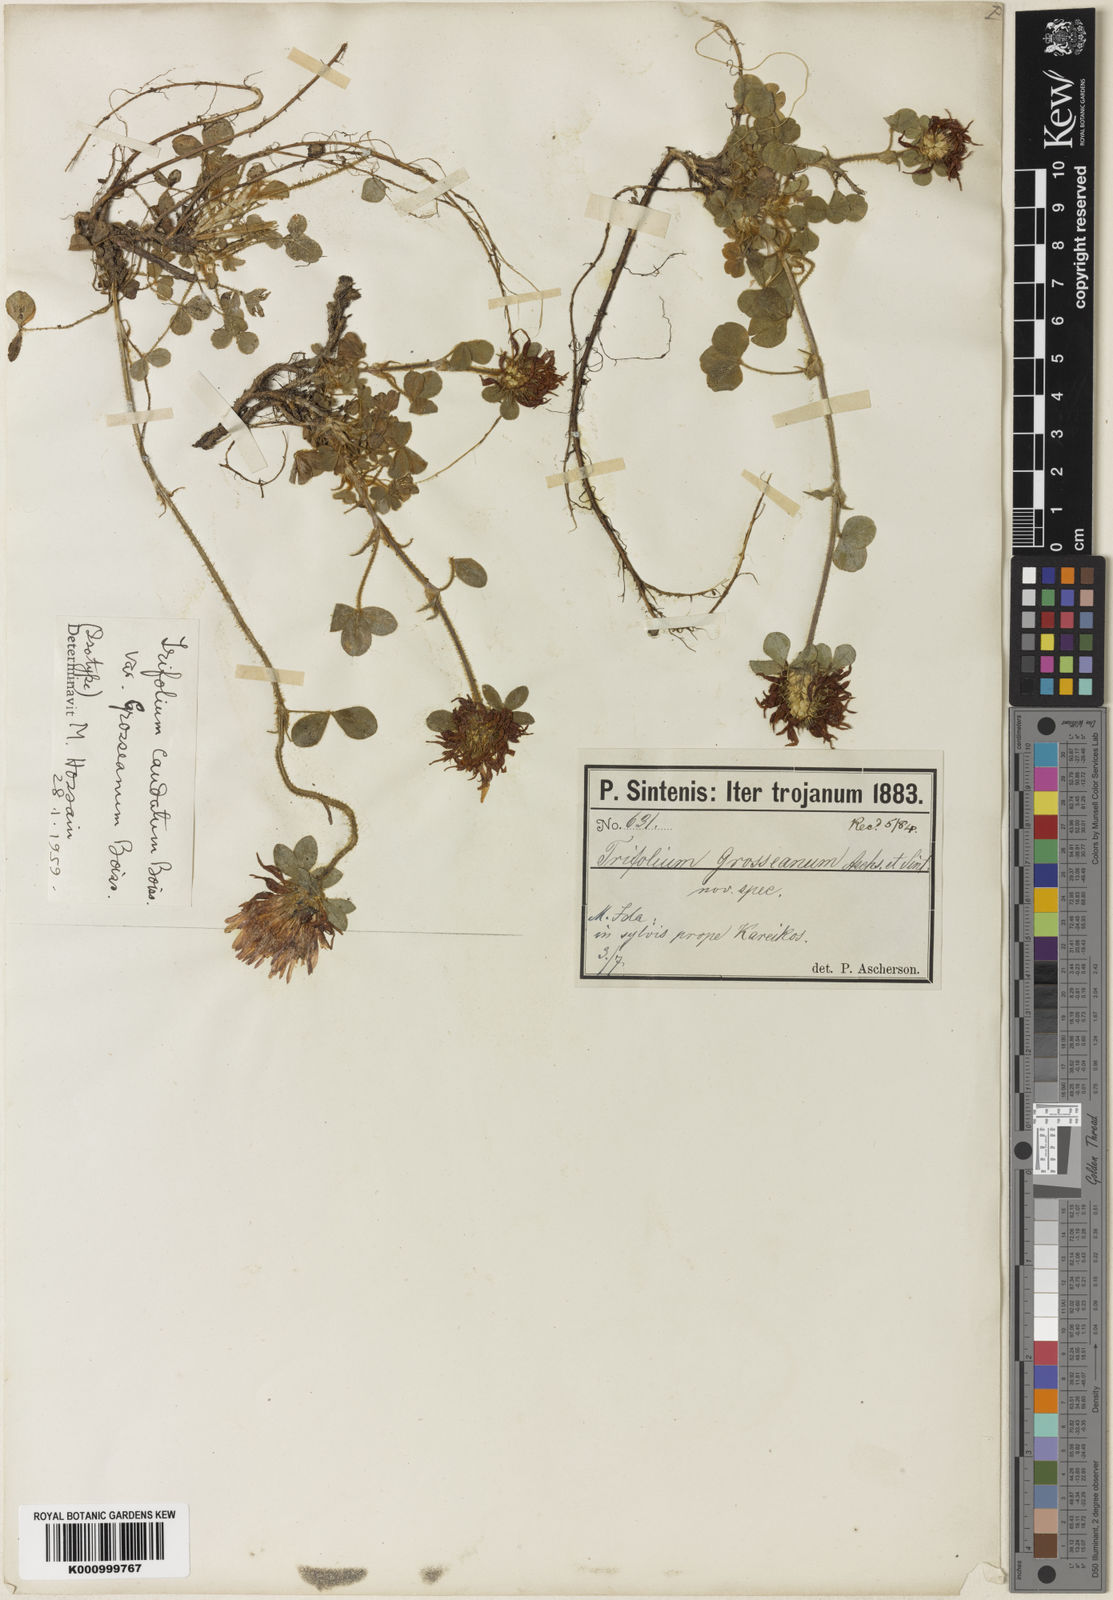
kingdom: Plantae
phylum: Tracheophyta
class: Magnoliopsida
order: Fabales
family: Fabaceae
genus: Trifolium
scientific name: Trifolium caudatum
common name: Tailed clover
